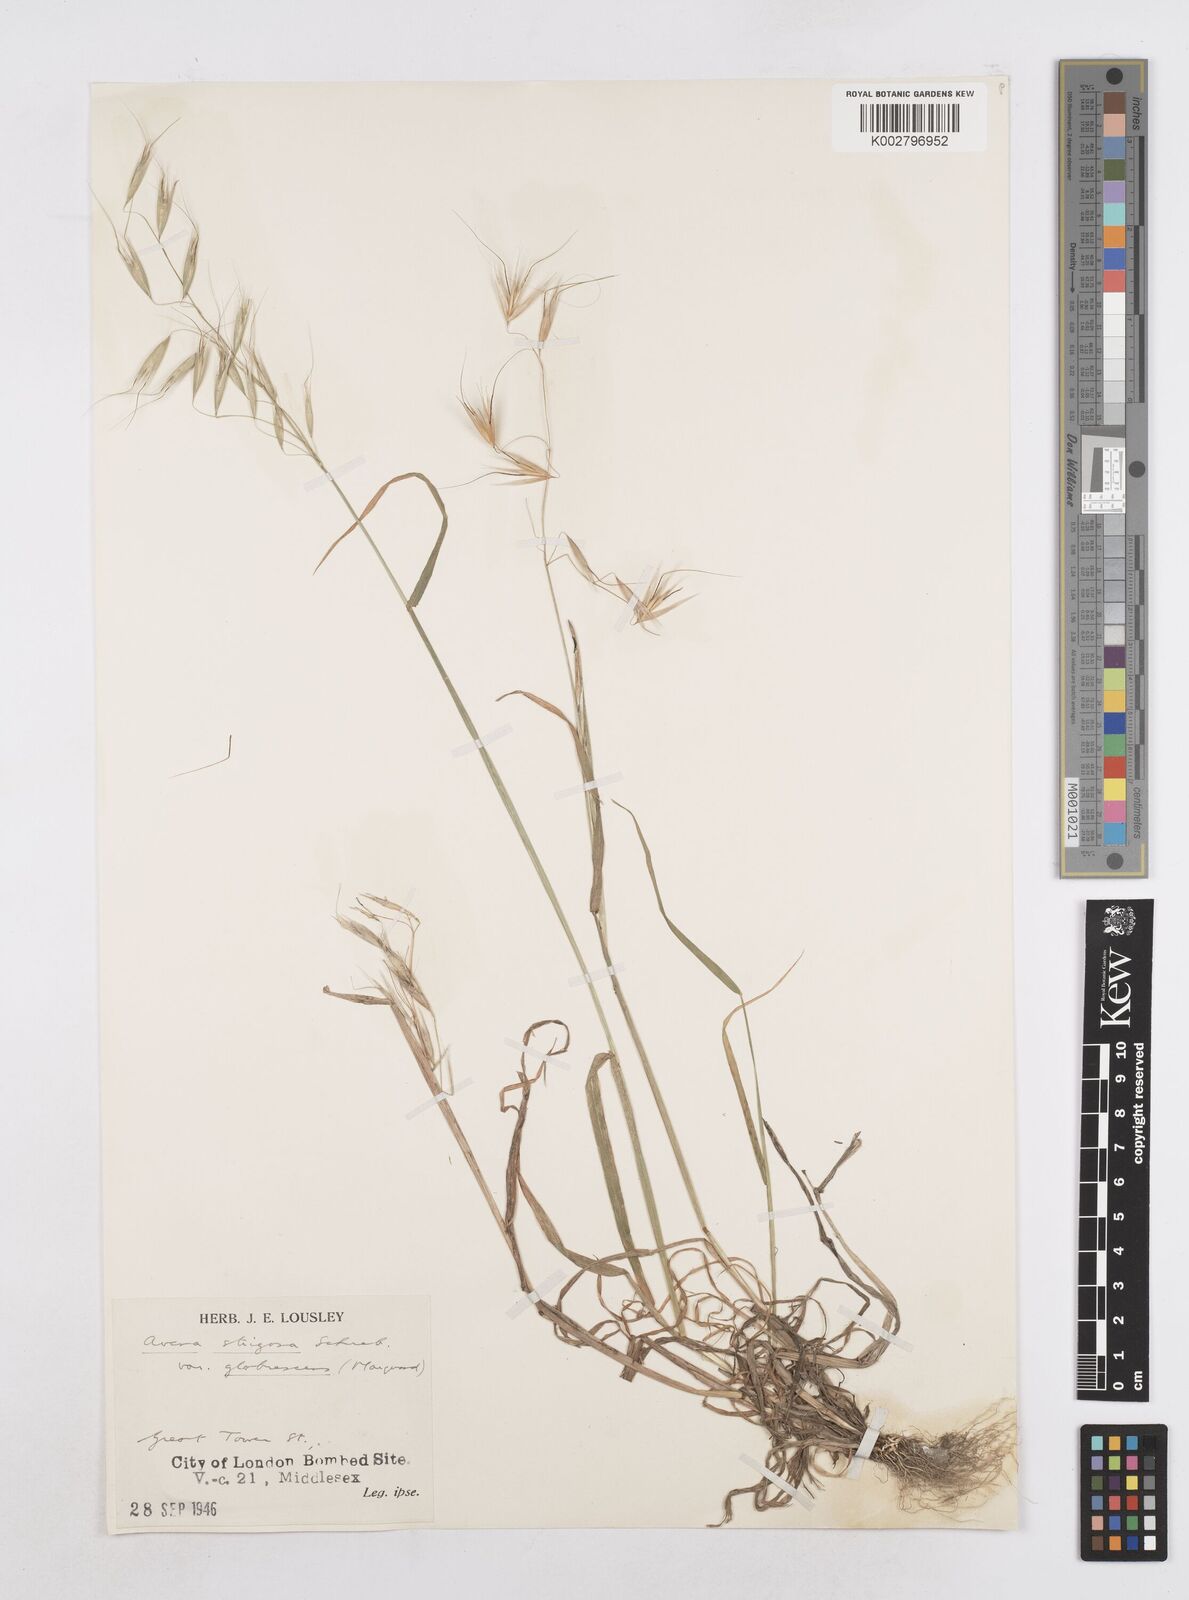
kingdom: Plantae
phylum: Tracheophyta
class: Liliopsida
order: Poales
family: Poaceae
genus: Avena
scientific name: Avena strigosa
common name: Bristle oat
